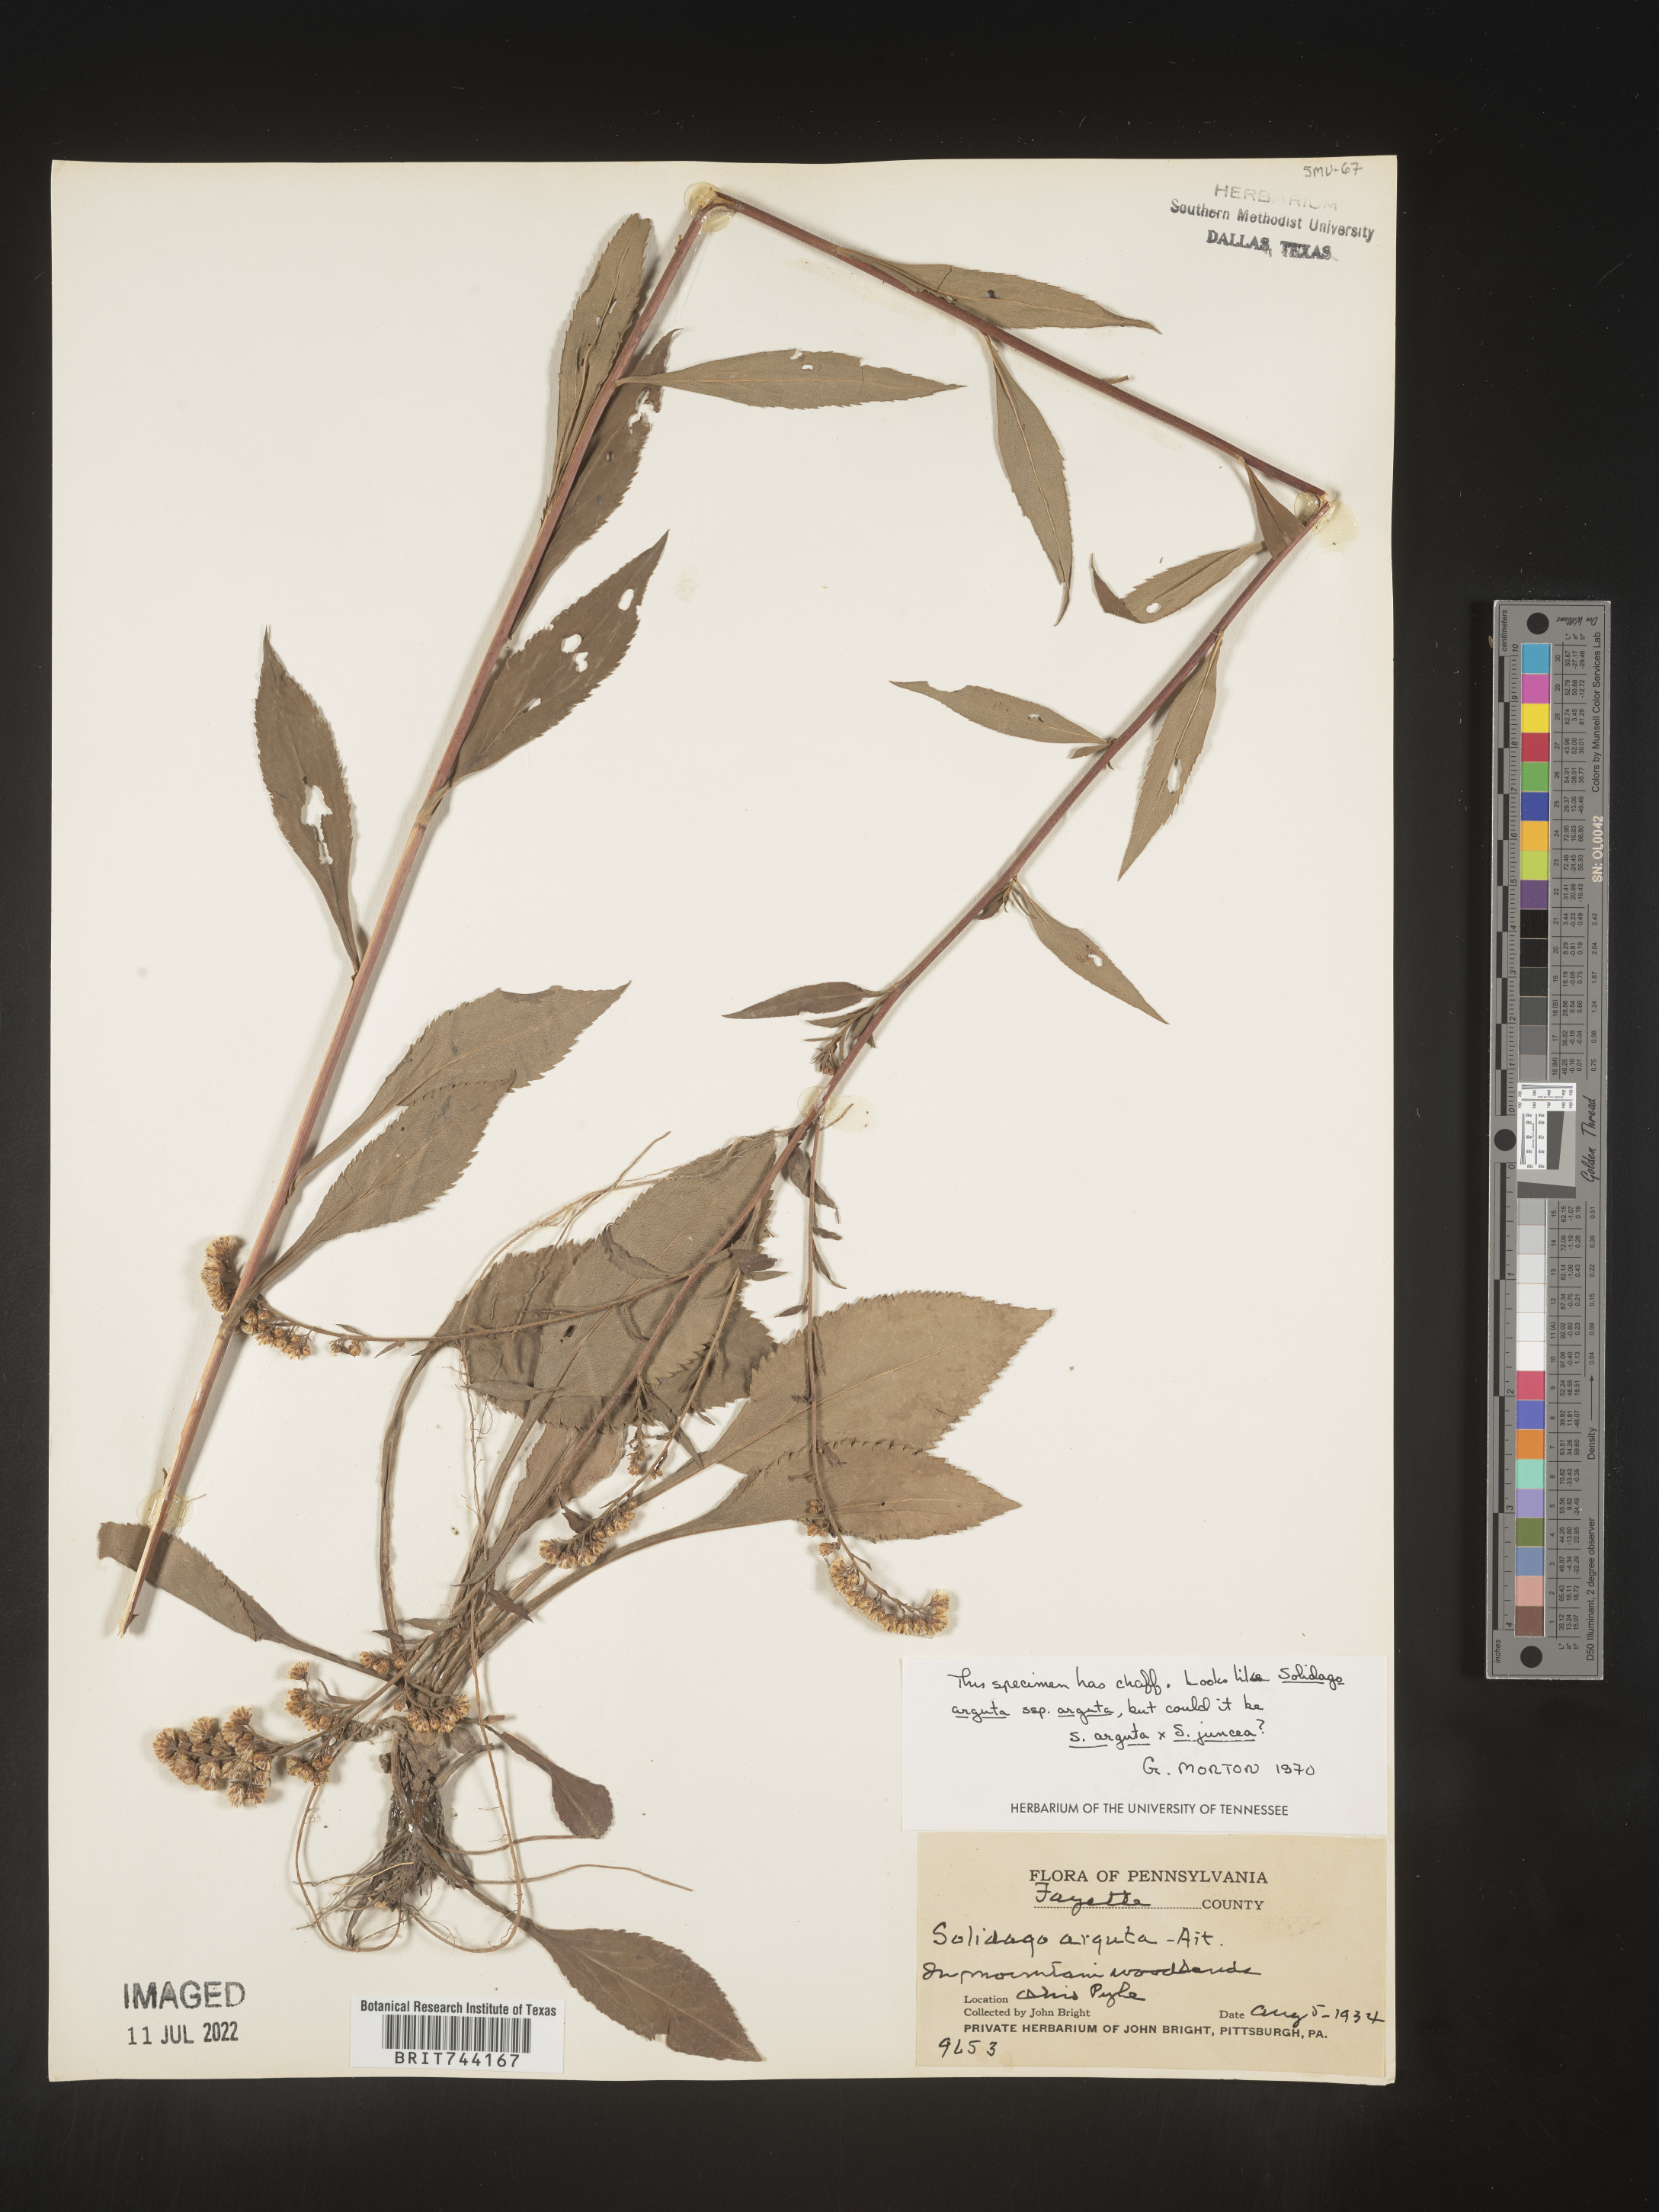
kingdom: Plantae
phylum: Tracheophyta
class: Magnoliopsida
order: Asterales
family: Asteraceae
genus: Solidago
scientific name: Solidago arguta
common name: Atlantic goldenrod
